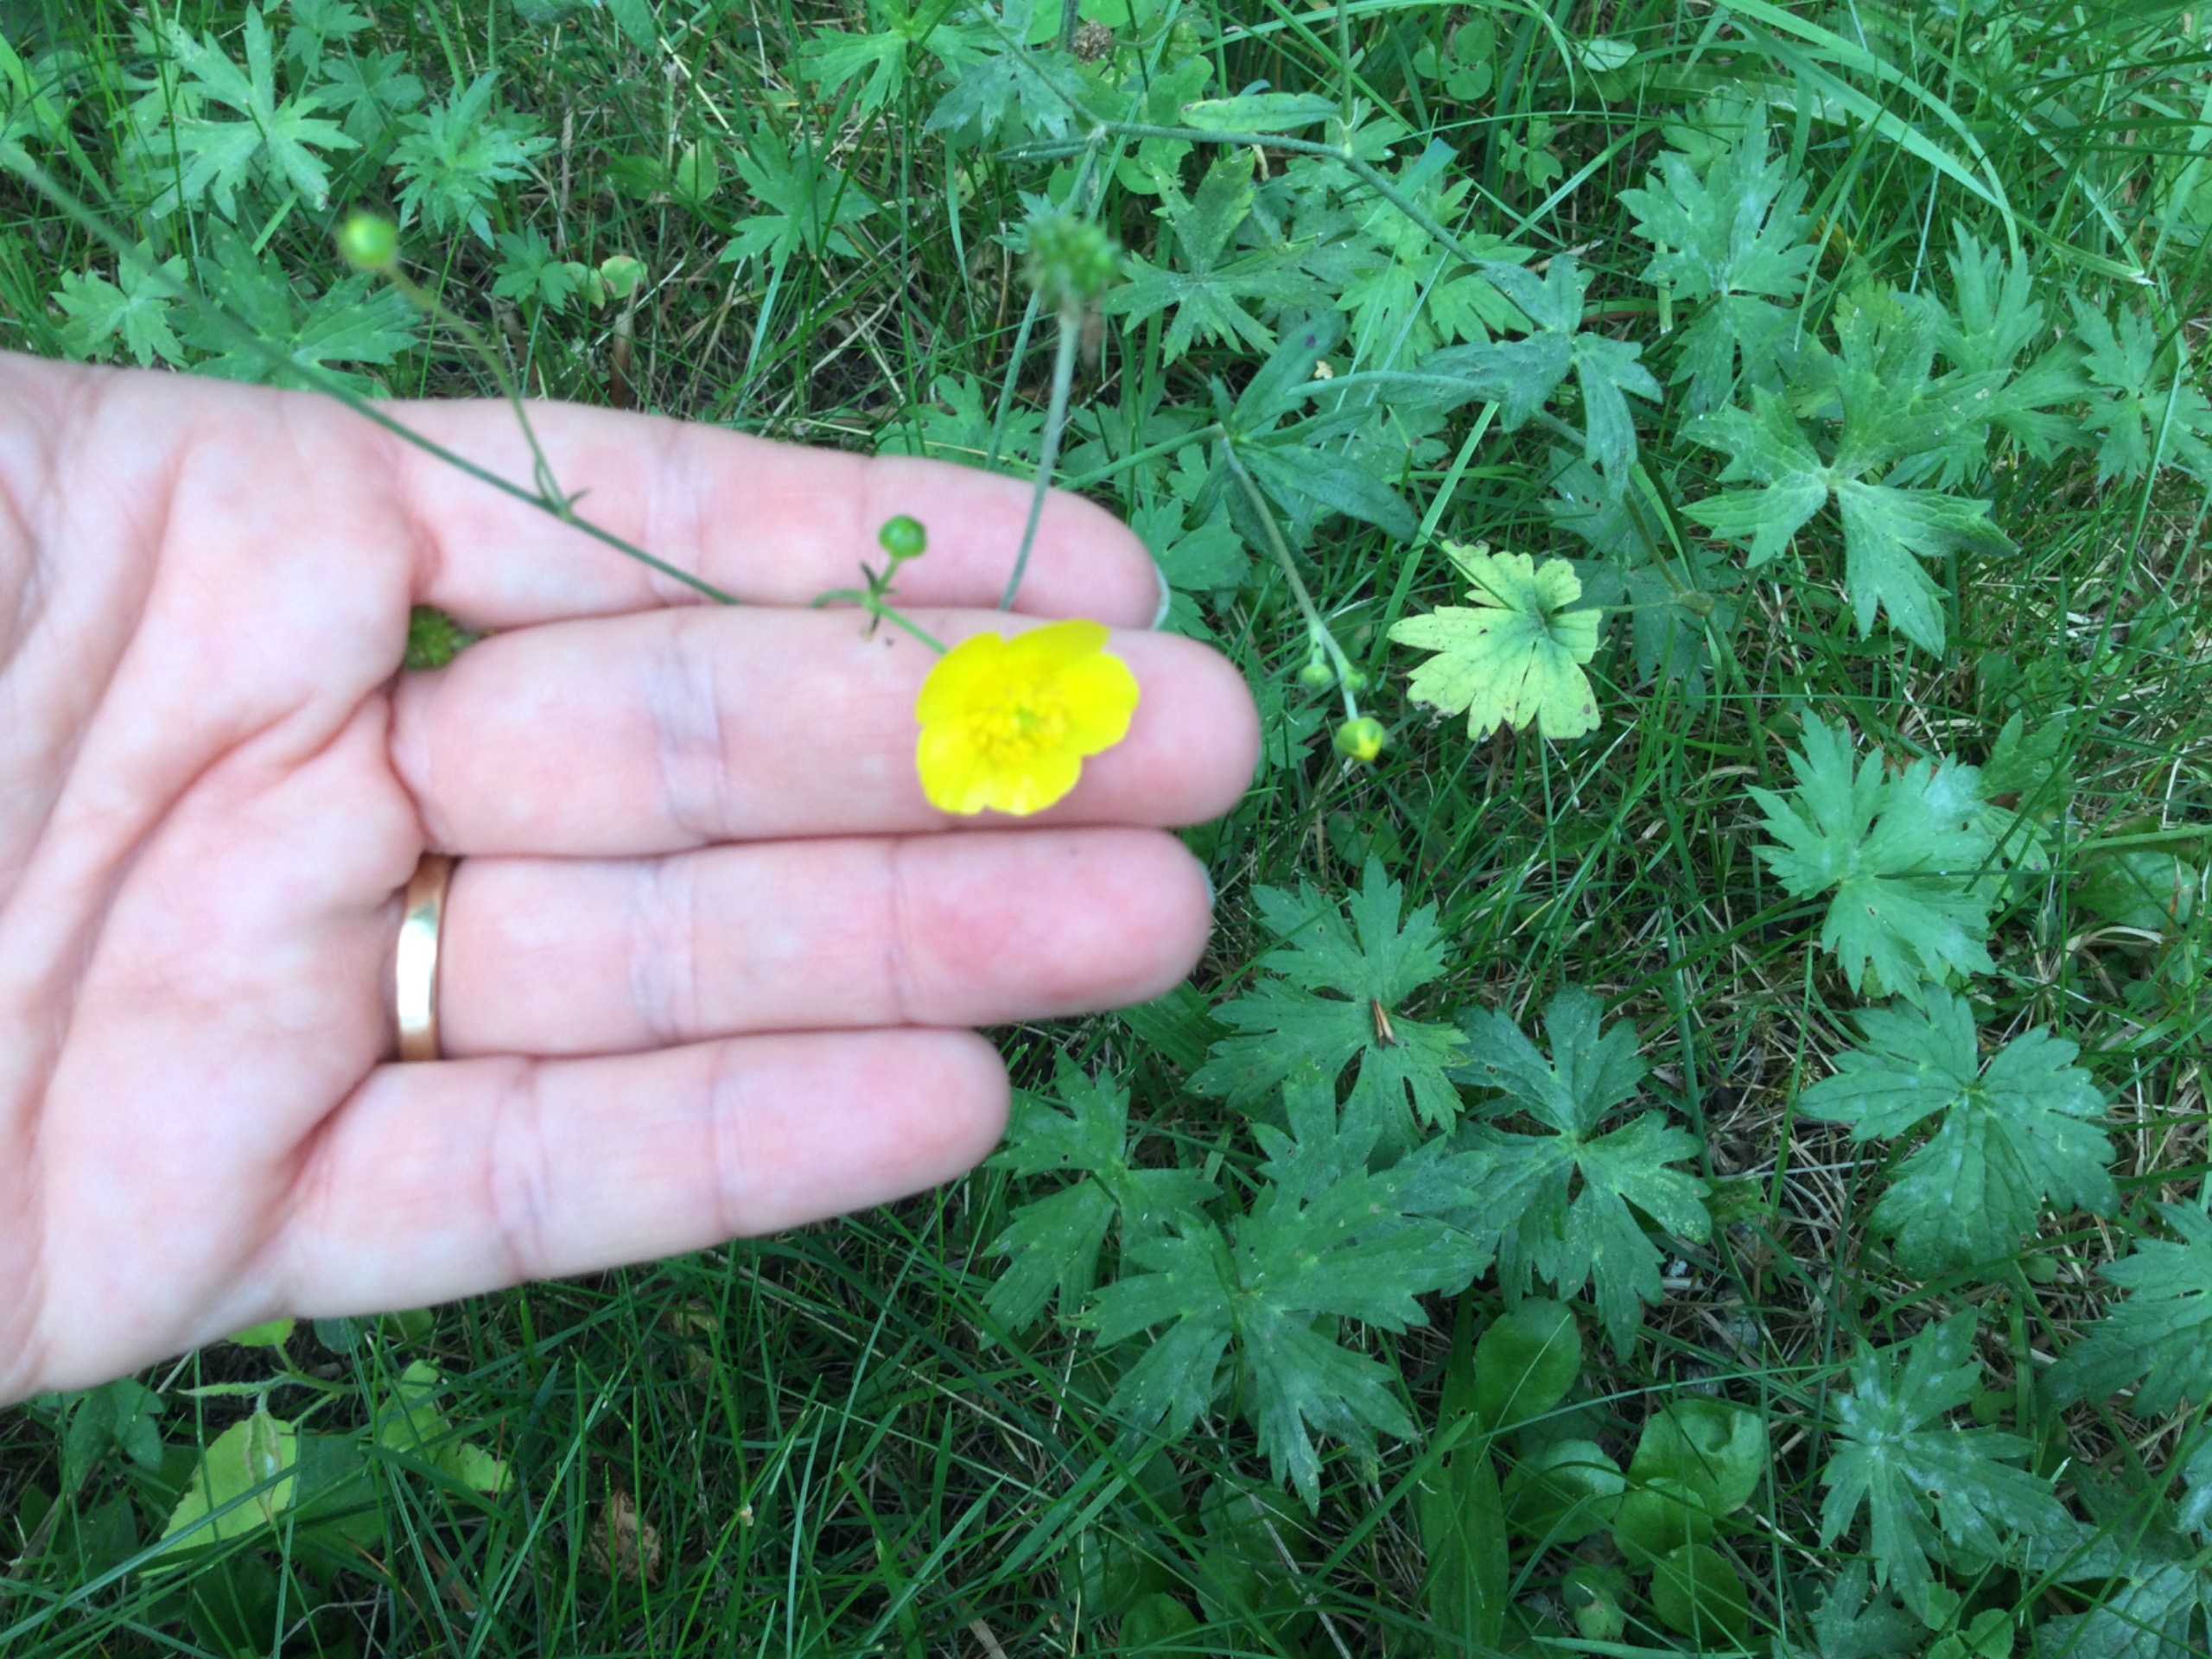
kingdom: Plantae
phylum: Tracheophyta
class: Magnoliopsida
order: Ranunculales
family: Ranunculaceae
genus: Ranunculus
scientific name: Ranunculus acris
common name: Bidende ranunkel
